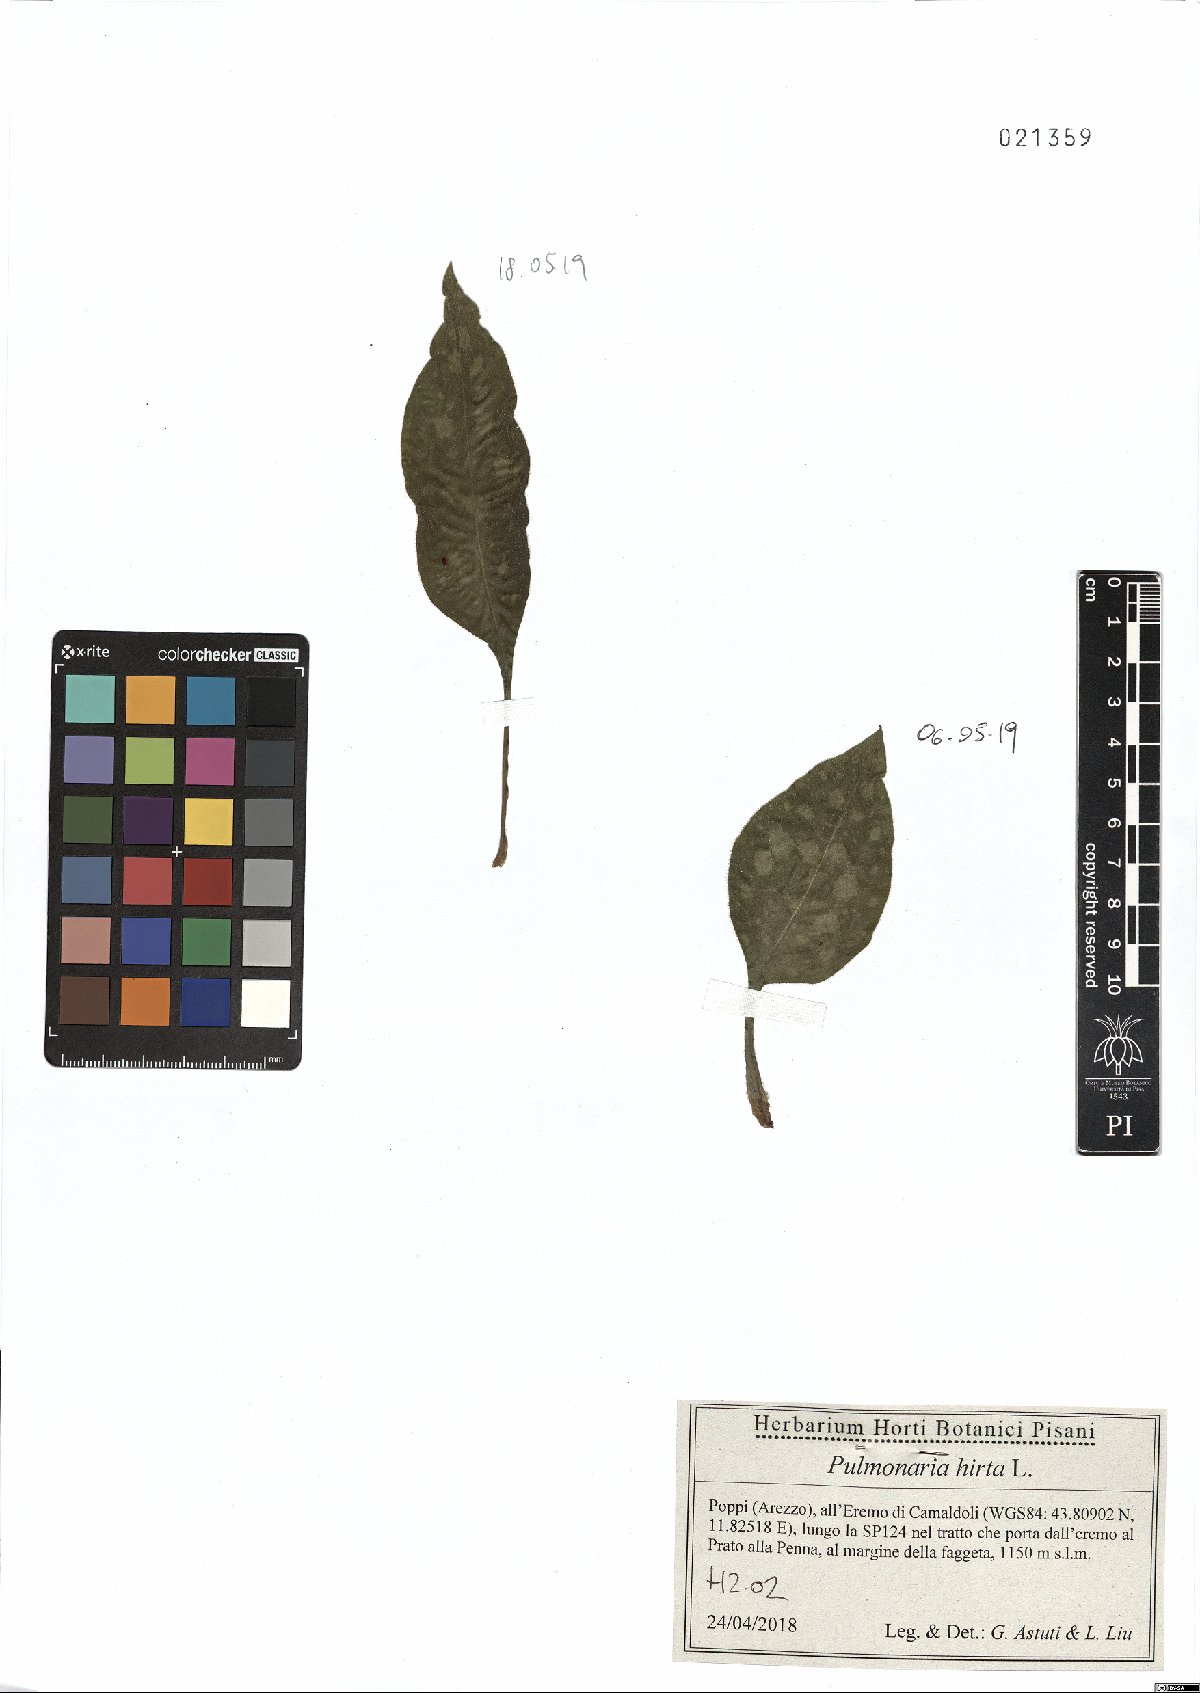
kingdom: Plantae
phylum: Tracheophyta
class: Magnoliopsida
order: Boraginales
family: Boraginaceae
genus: Pulmonaria
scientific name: Pulmonaria hirta
